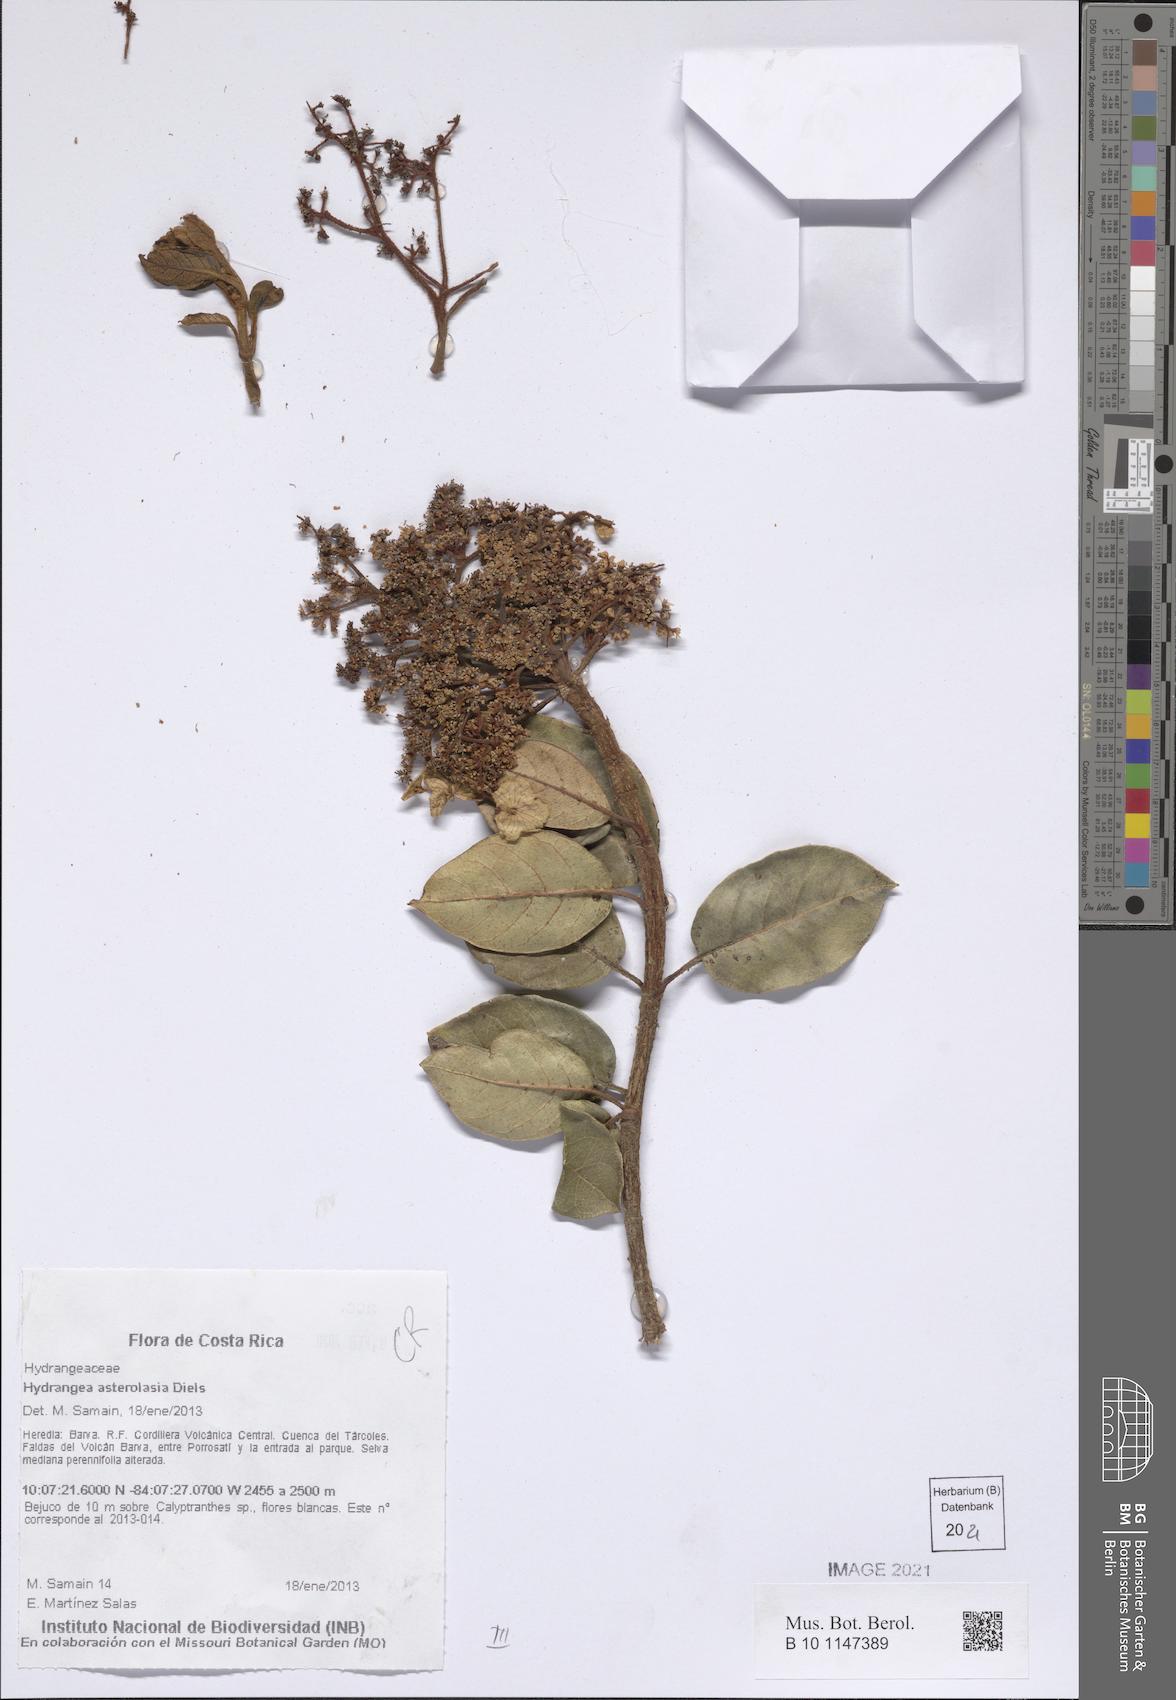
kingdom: Plantae
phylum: Tracheophyta
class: Magnoliopsida
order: Cornales
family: Hydrangeaceae
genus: Hydrangea
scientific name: Hydrangea asterolasia
